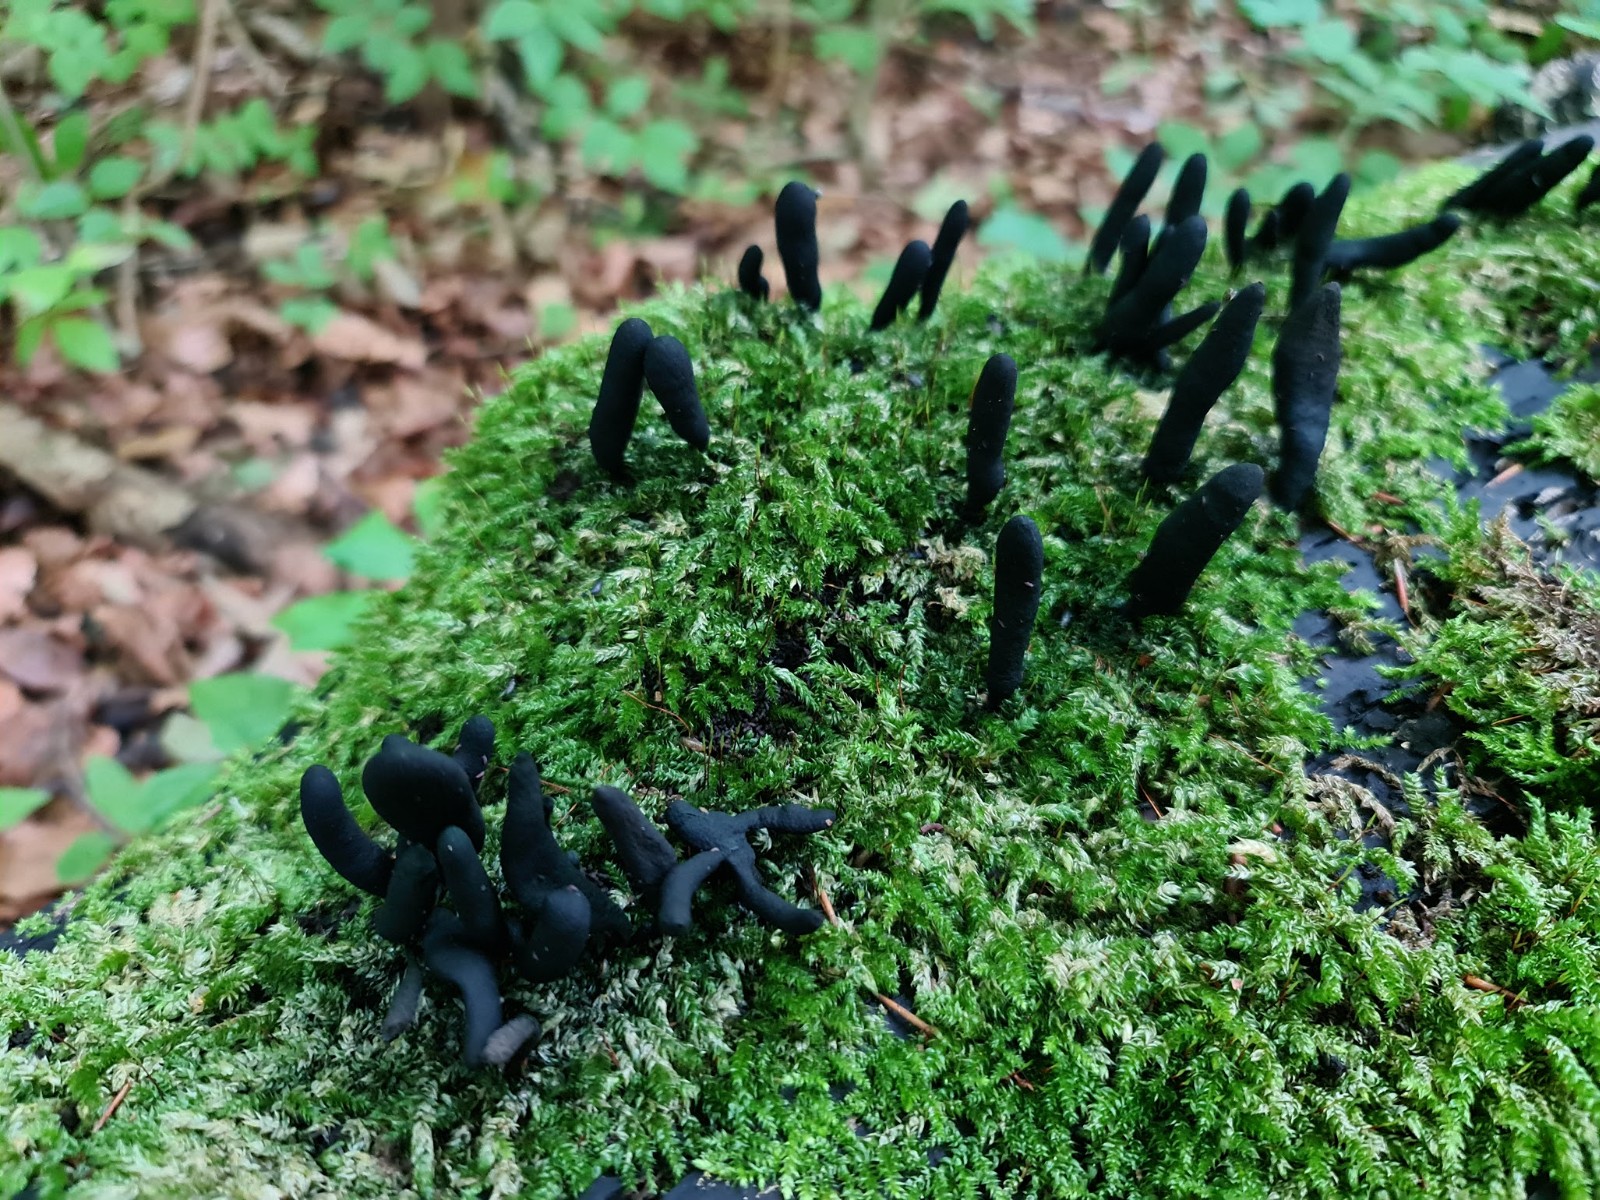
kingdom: Fungi
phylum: Ascomycota
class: Sordariomycetes
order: Xylariales
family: Xylariaceae
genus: Xylaria
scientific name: Xylaria longipes
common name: slank stødsvamp
